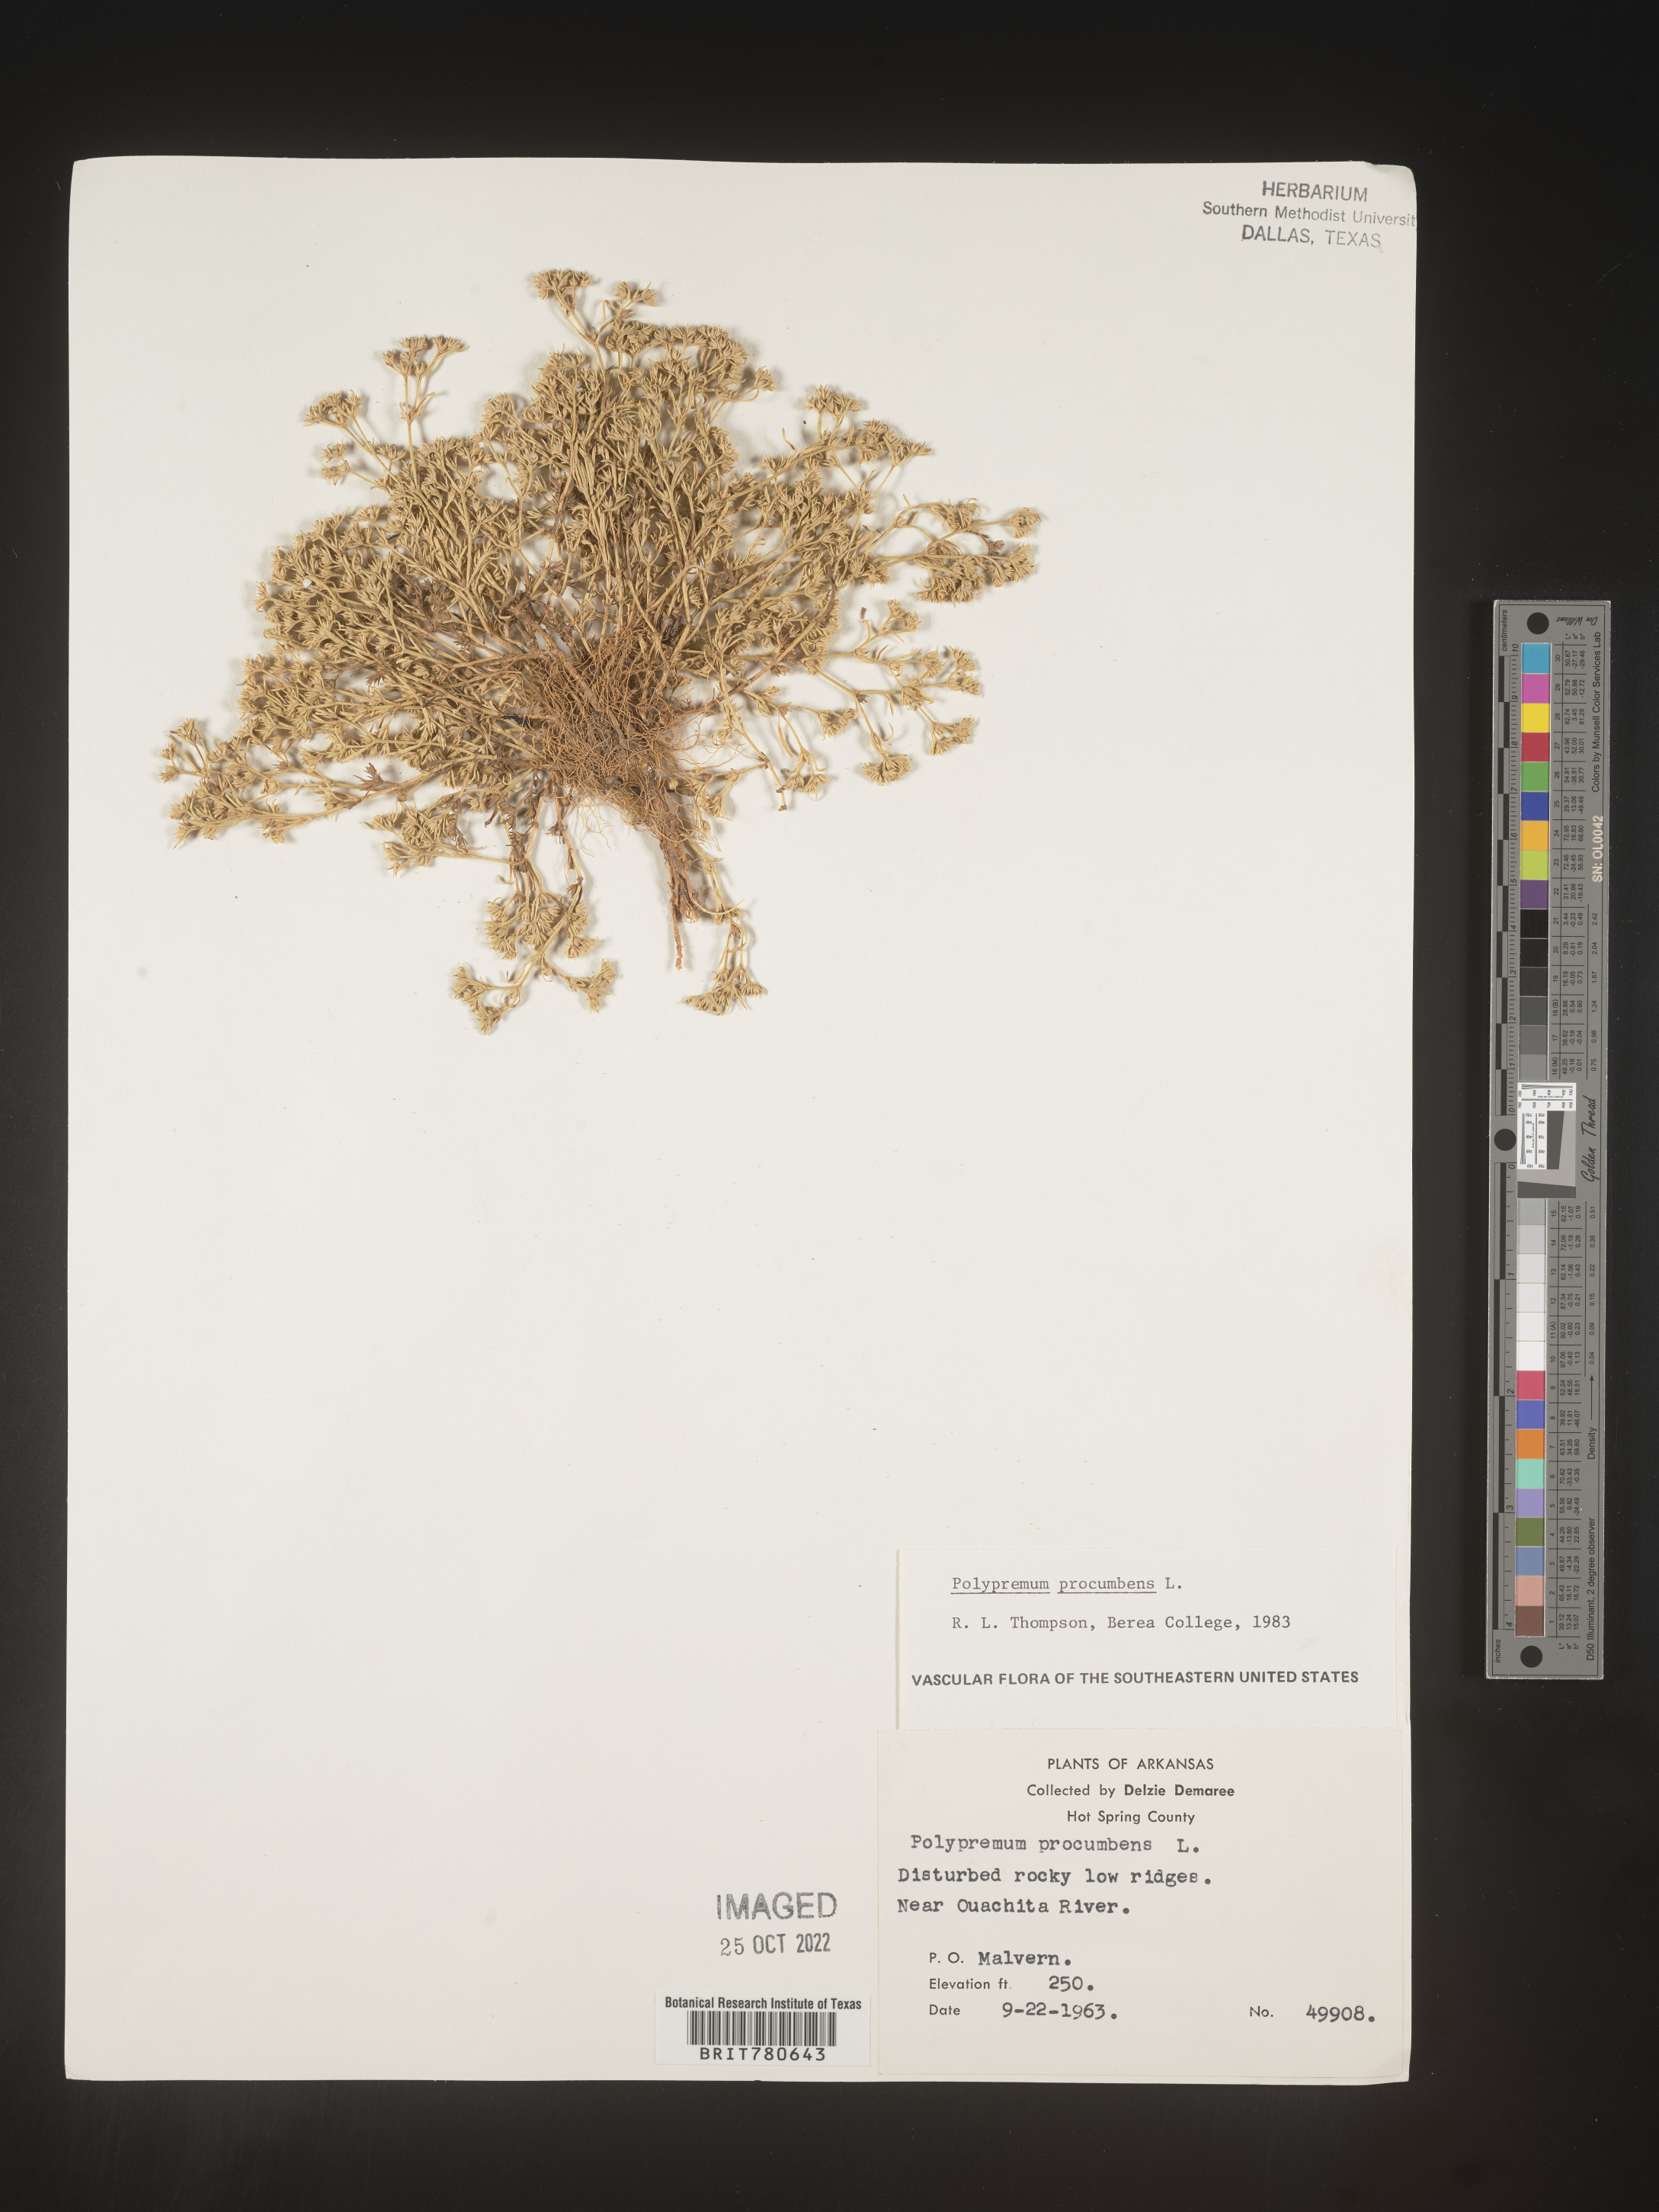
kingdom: Plantae
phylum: Tracheophyta
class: Magnoliopsida
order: Lamiales
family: Tetrachondraceae
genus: Polypremum
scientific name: Polypremum procumbens
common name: Juniper-leaf
